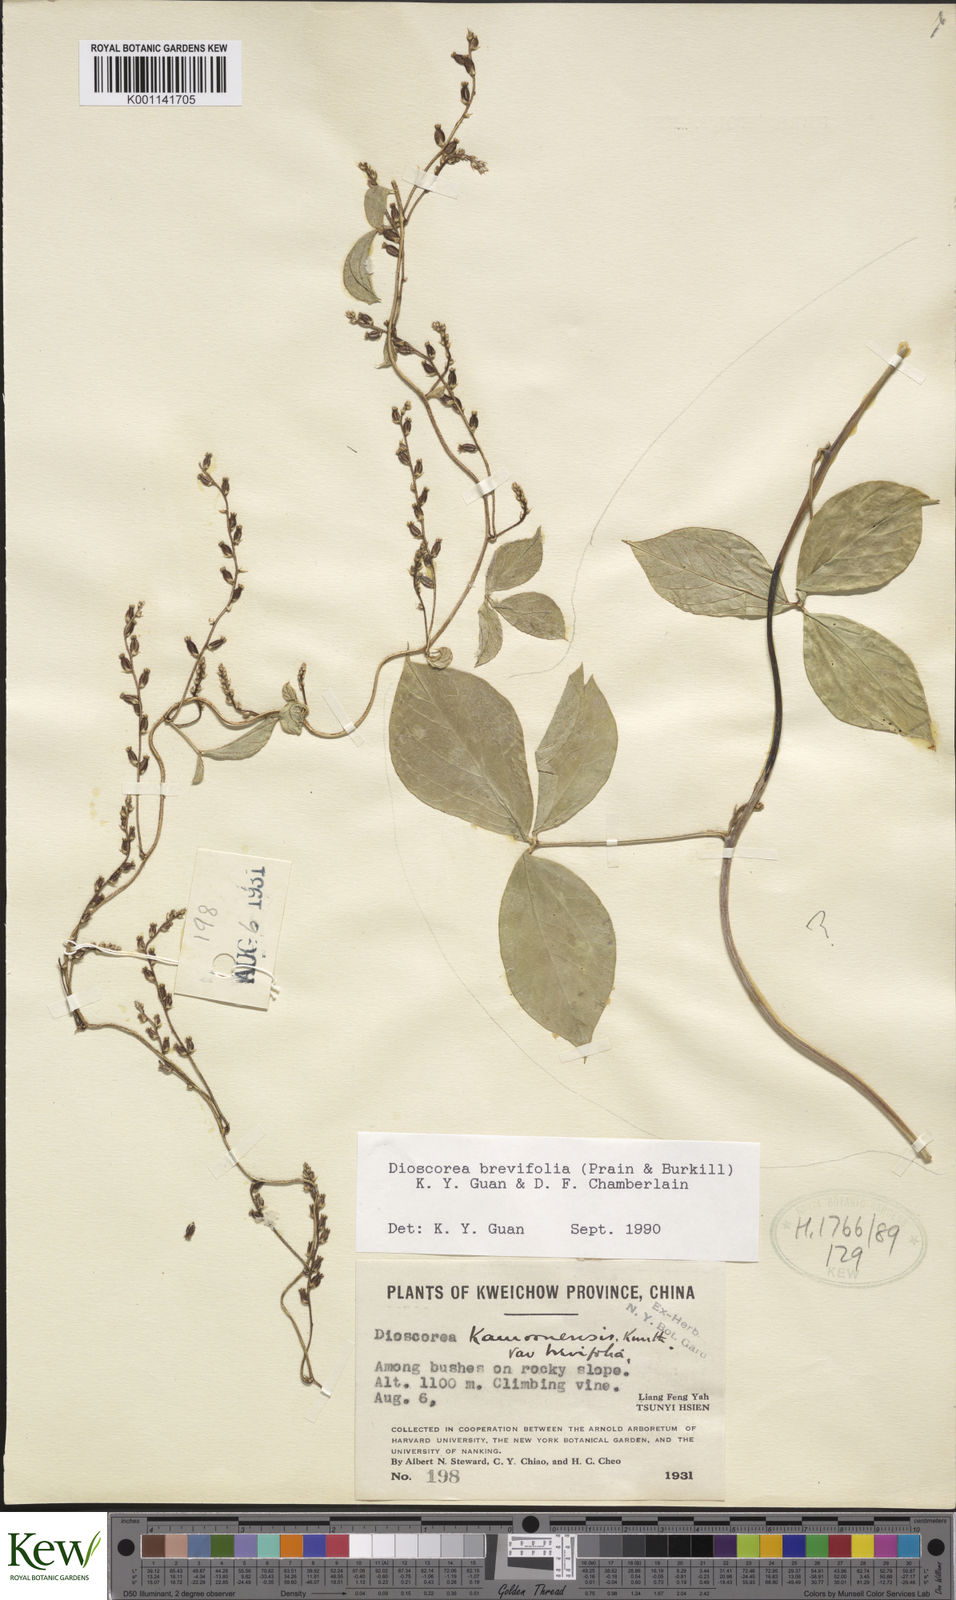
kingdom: Plantae
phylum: Tracheophyta
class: Liliopsida
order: Dioscoreales
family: Dioscoreaceae
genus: Dioscorea
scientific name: Dioscorea kamoonensis
